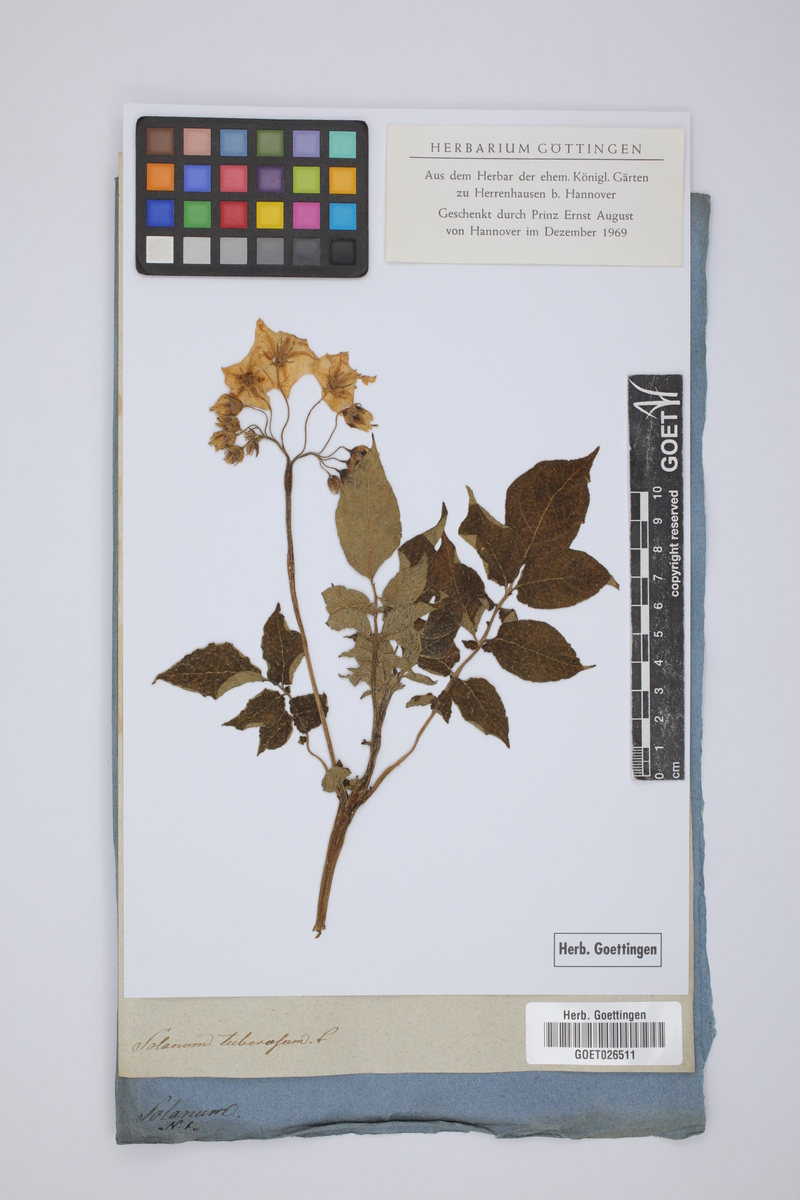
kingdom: Plantae
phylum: Tracheophyta
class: Magnoliopsida
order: Solanales
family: Solanaceae
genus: Solanum
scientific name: Solanum tuberosum
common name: Potato
